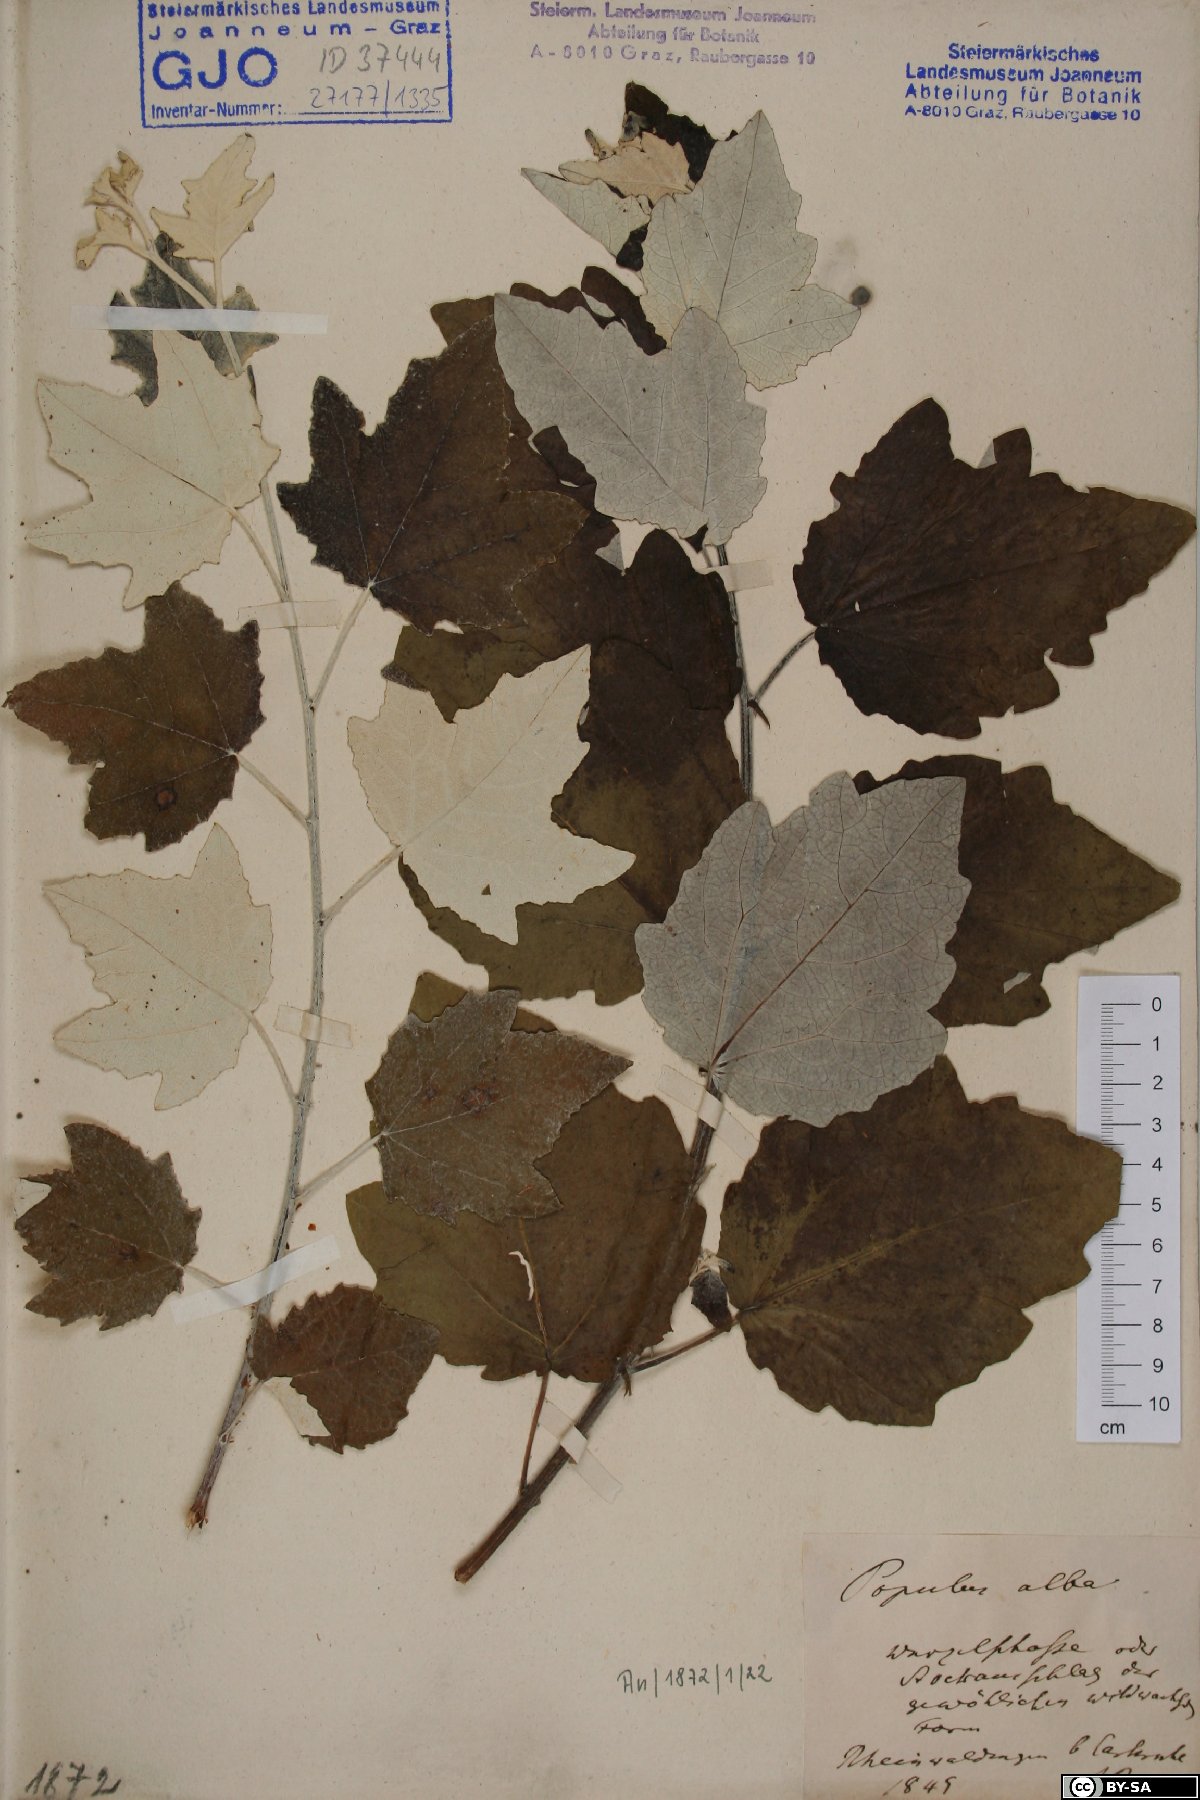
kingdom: Plantae
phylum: Tracheophyta
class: Magnoliopsida
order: Malpighiales
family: Salicaceae
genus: Populus
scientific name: Populus alba
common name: White poplar
